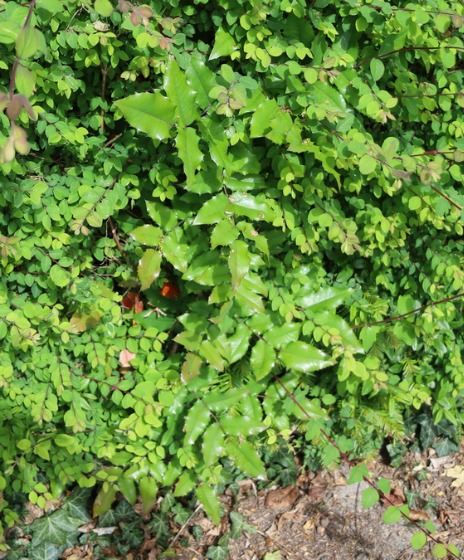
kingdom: Plantae
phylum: Tracheophyta
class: Magnoliopsida
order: Ranunculales
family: Berberidaceae
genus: Mahonia
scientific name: Mahonia aquifolium
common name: Almindelig mahonie
